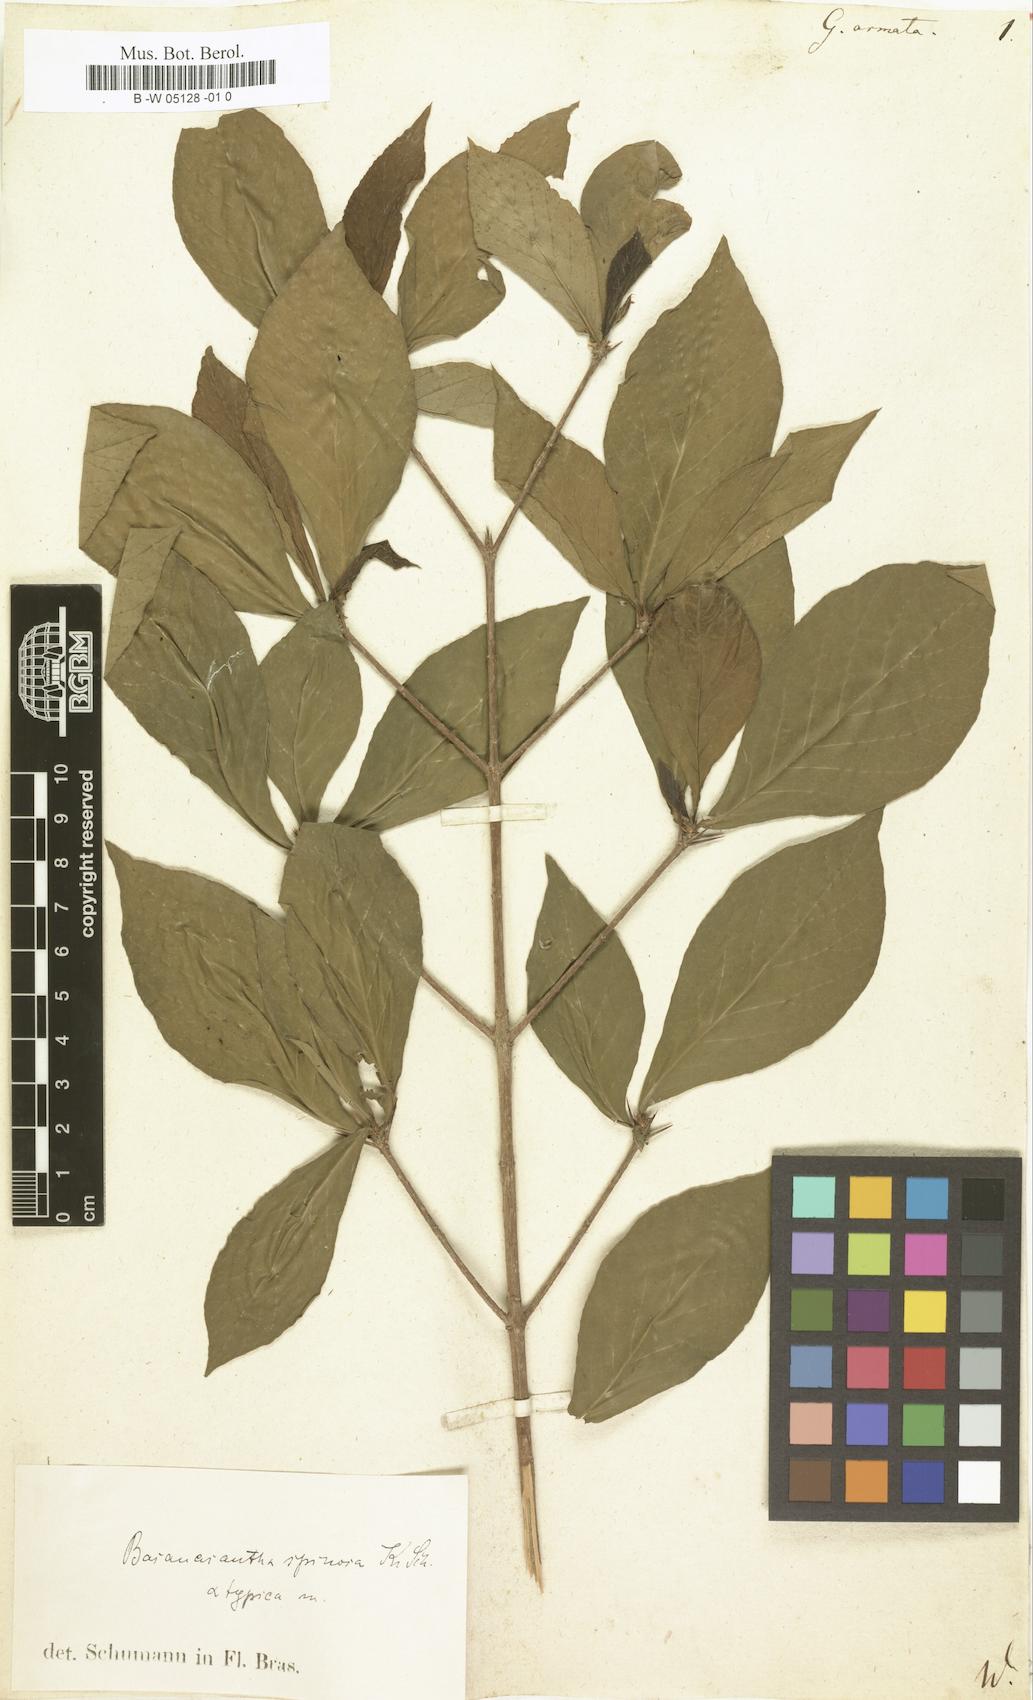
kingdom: Plantae
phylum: Tracheophyta
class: Magnoliopsida
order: Gentianales
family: Rubiaceae
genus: Randia
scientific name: Randia
